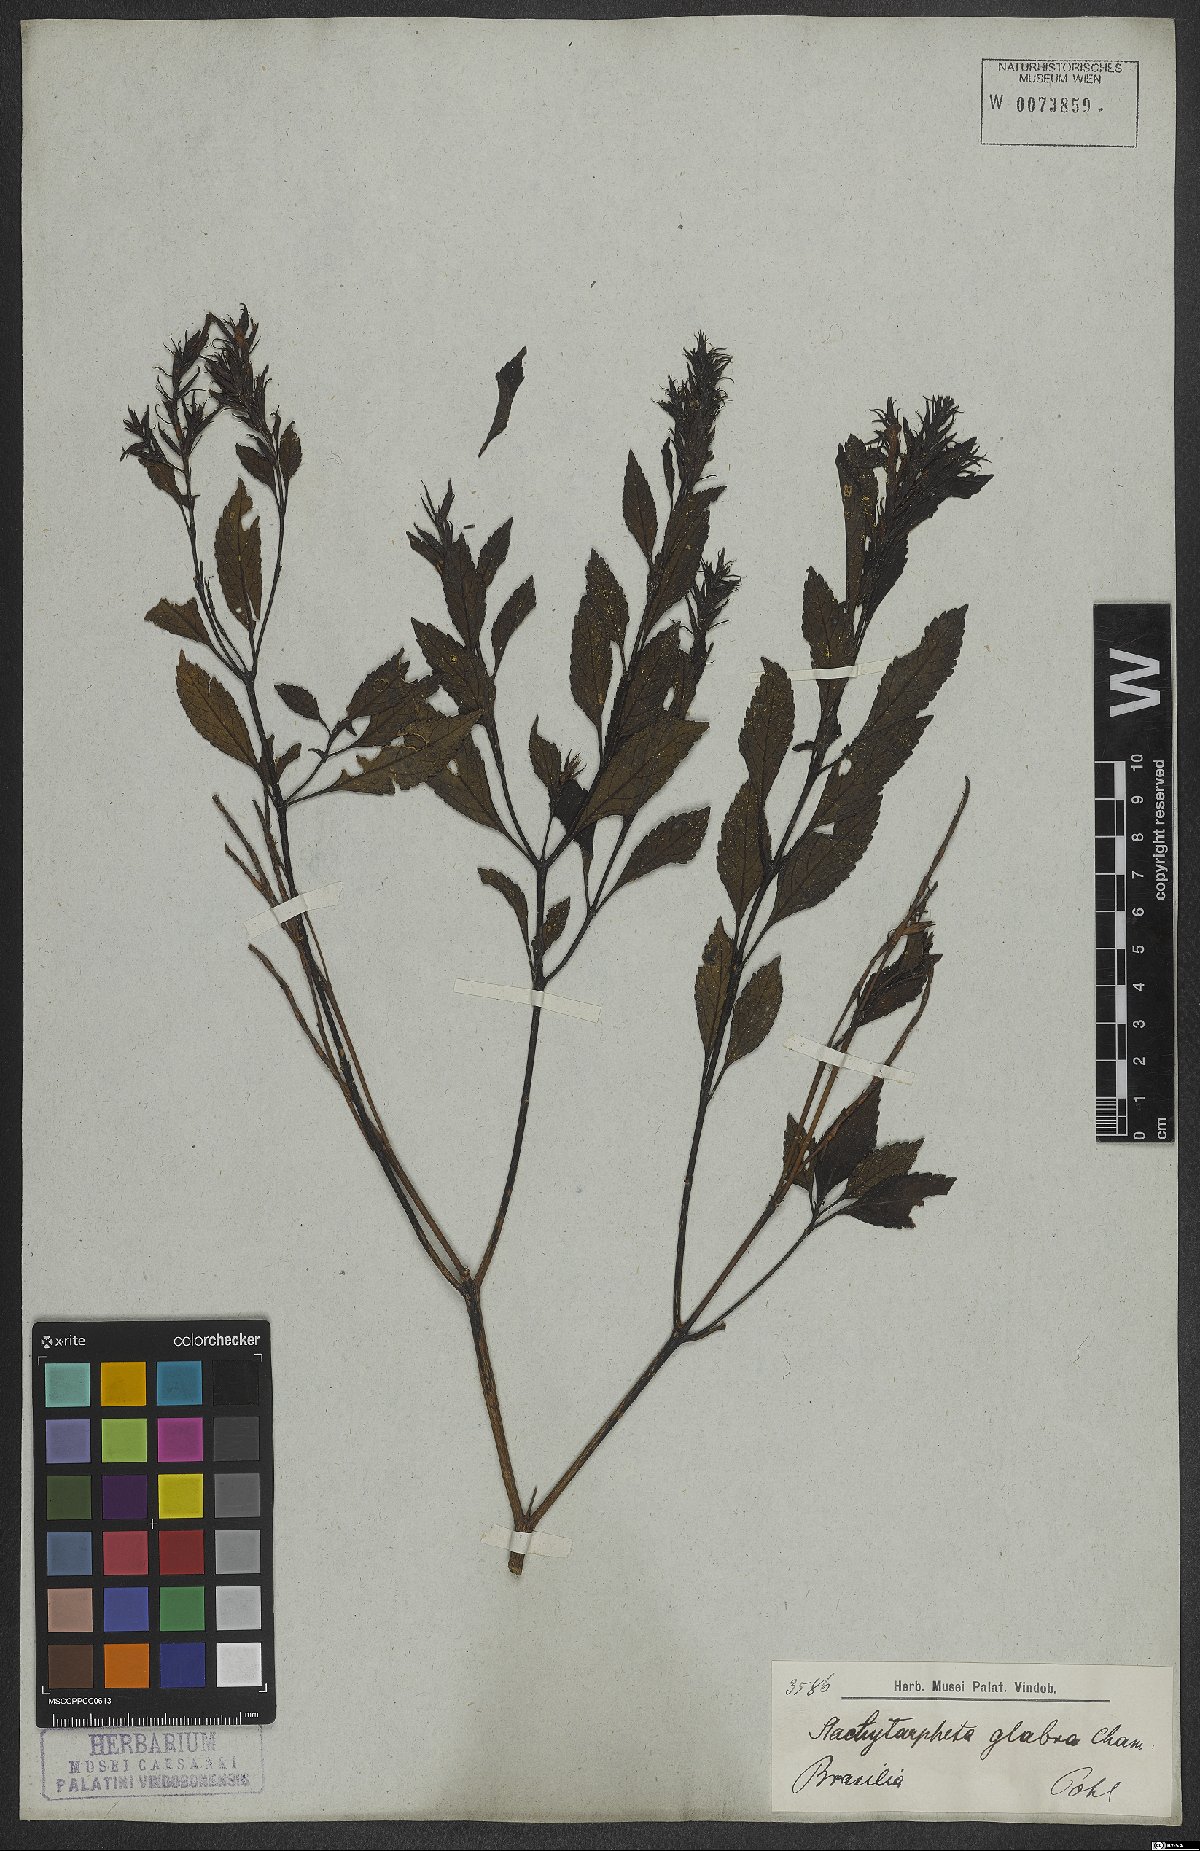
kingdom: Plantae
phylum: Tracheophyta
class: Magnoliopsida
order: Lamiales
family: Verbenaceae
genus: Stachytarpheta
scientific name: Stachytarpheta glabra
